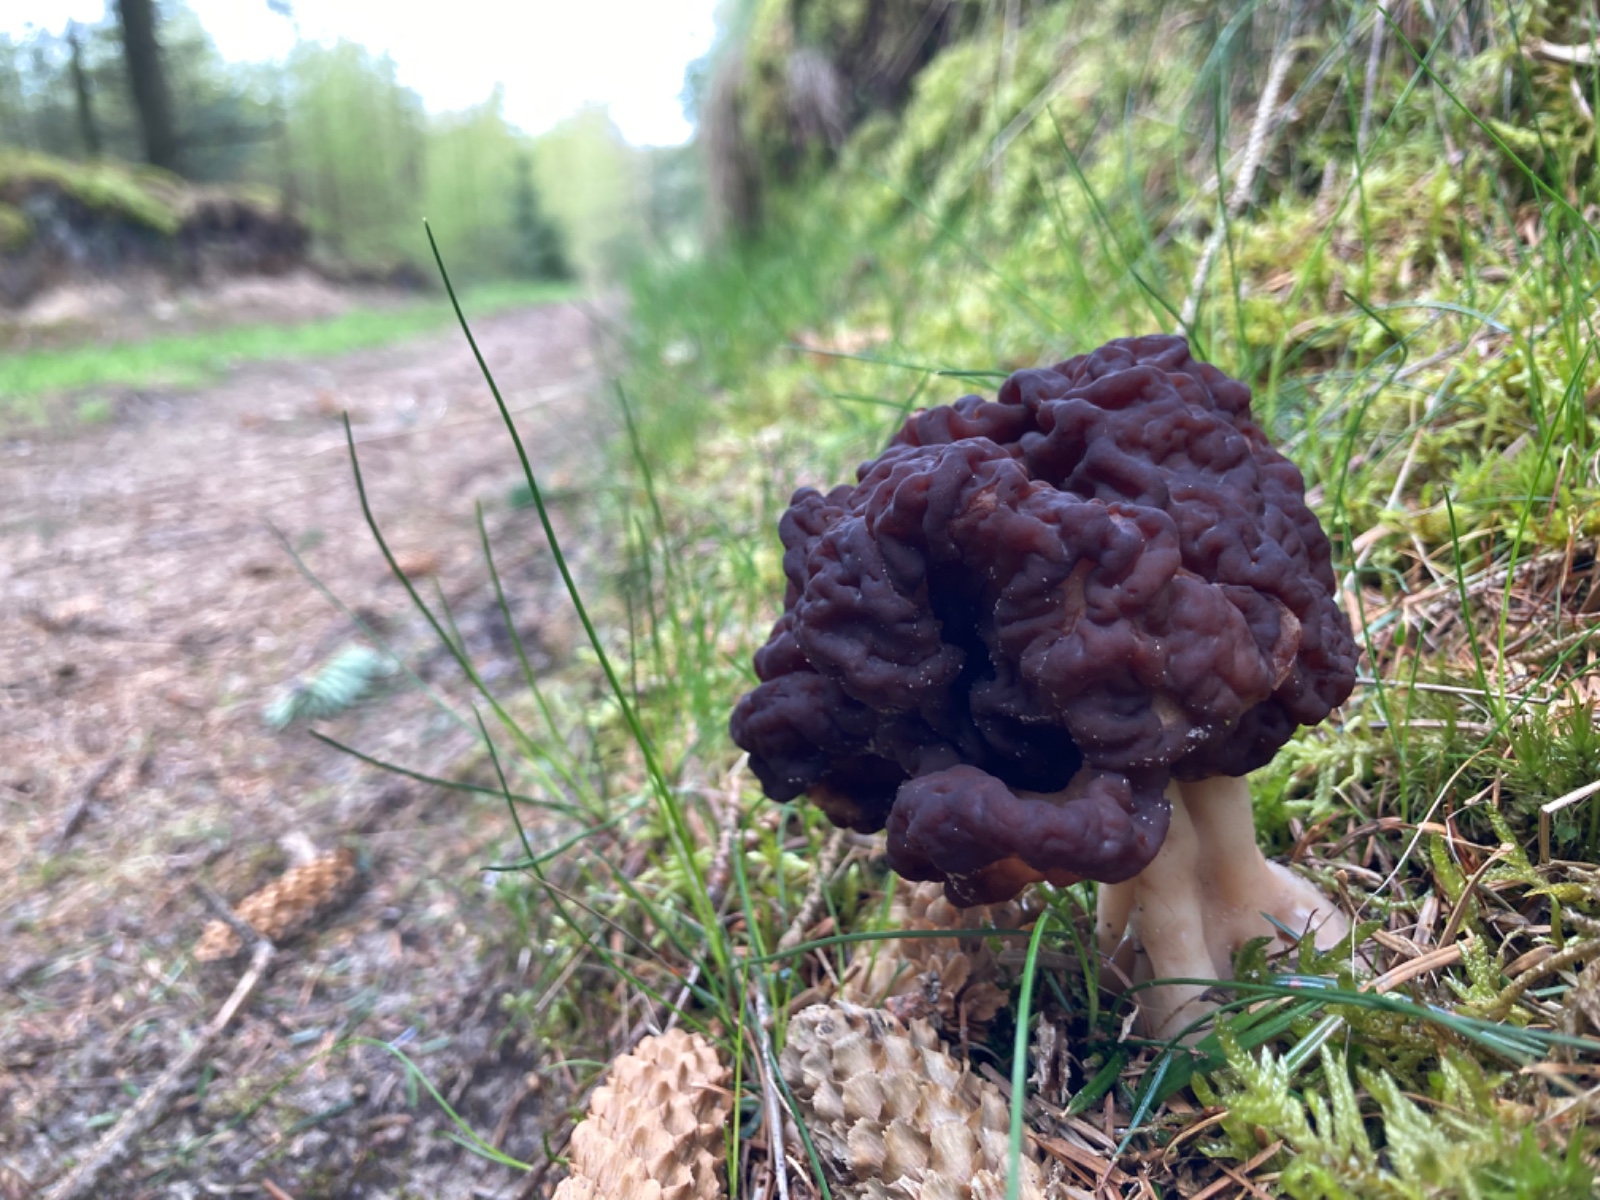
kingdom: Fungi
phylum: Ascomycota
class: Pezizomycetes
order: Pezizales
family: Discinaceae
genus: Gyromitra
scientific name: Gyromitra esculenta
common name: ægte stenmorkel
